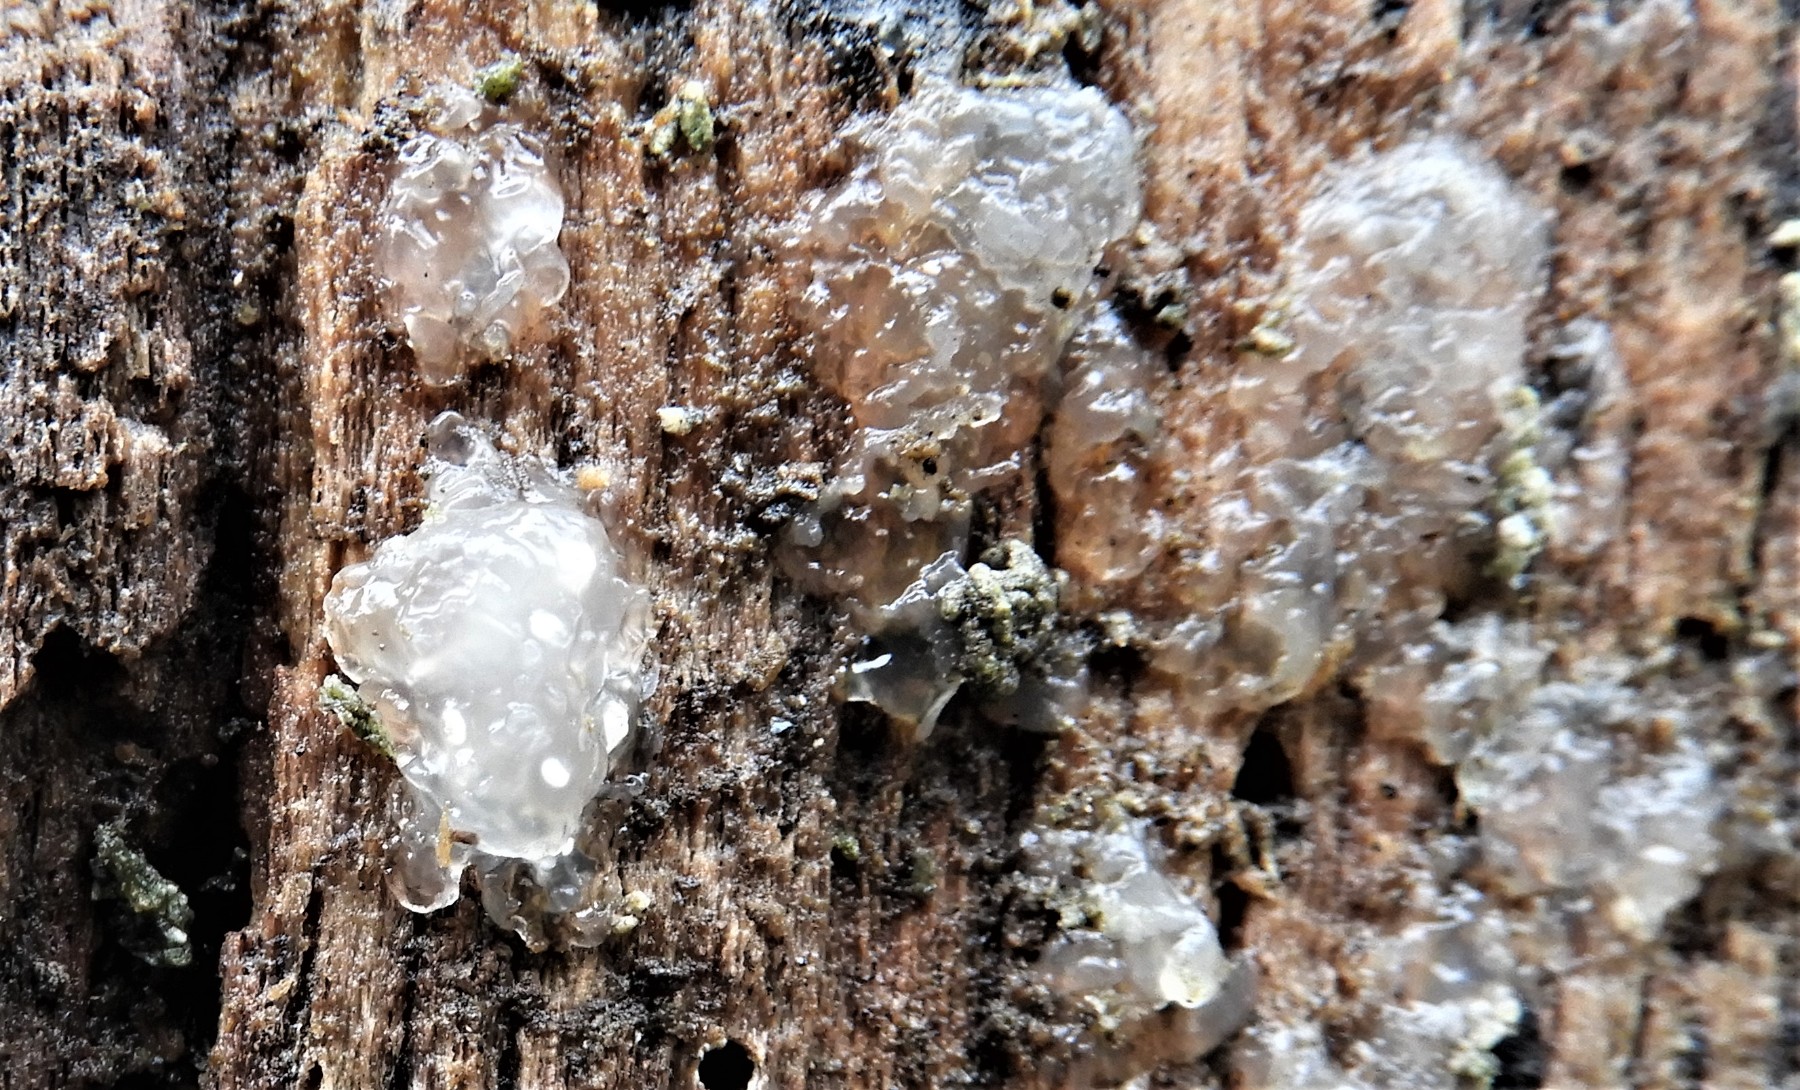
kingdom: Fungi
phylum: Basidiomycota
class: Agaricomycetes
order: Auriculariales
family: Hyaloriaceae
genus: Myxarium
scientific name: Myxarium nucleatum
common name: klar bævretop
